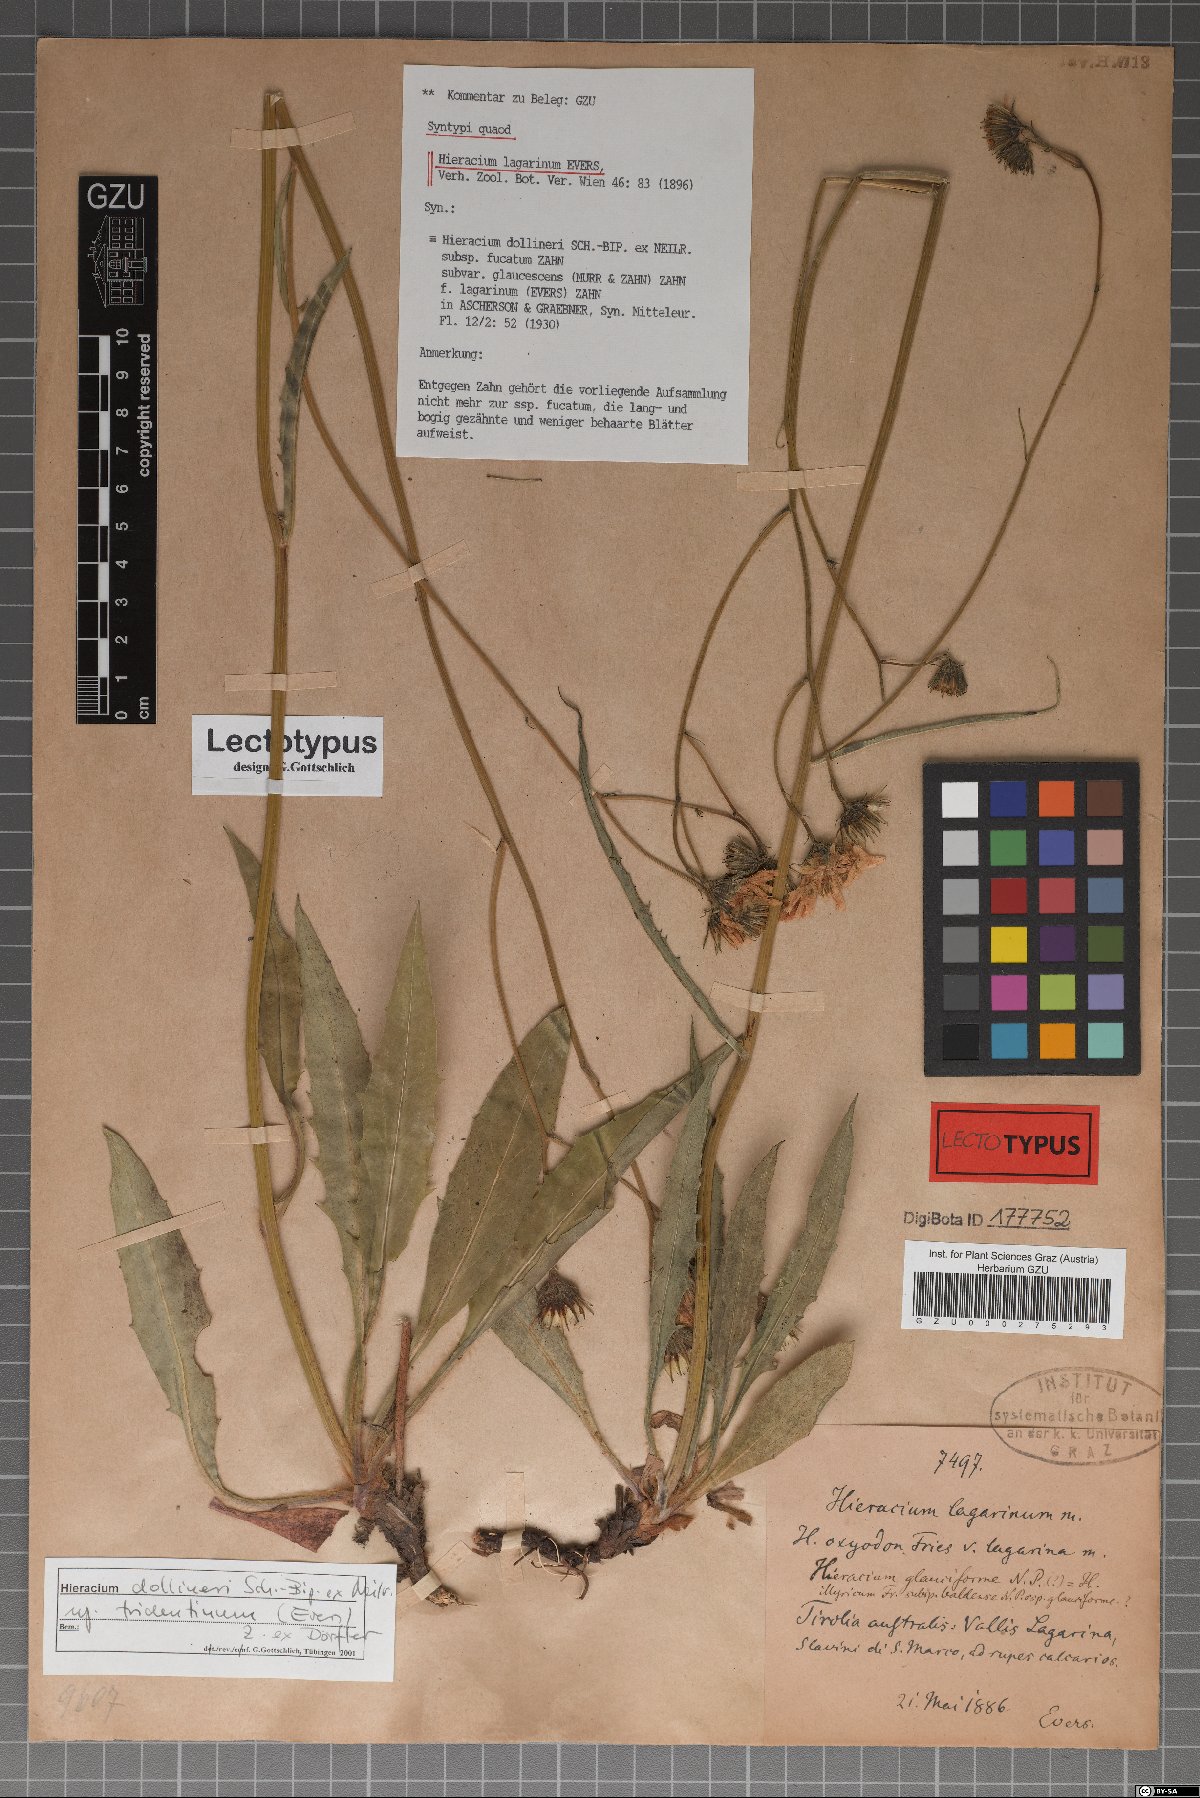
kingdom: Plantae
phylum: Tracheophyta
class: Magnoliopsida
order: Asterales
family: Asteraceae
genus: Hieracium
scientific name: Hieracium dollineri
